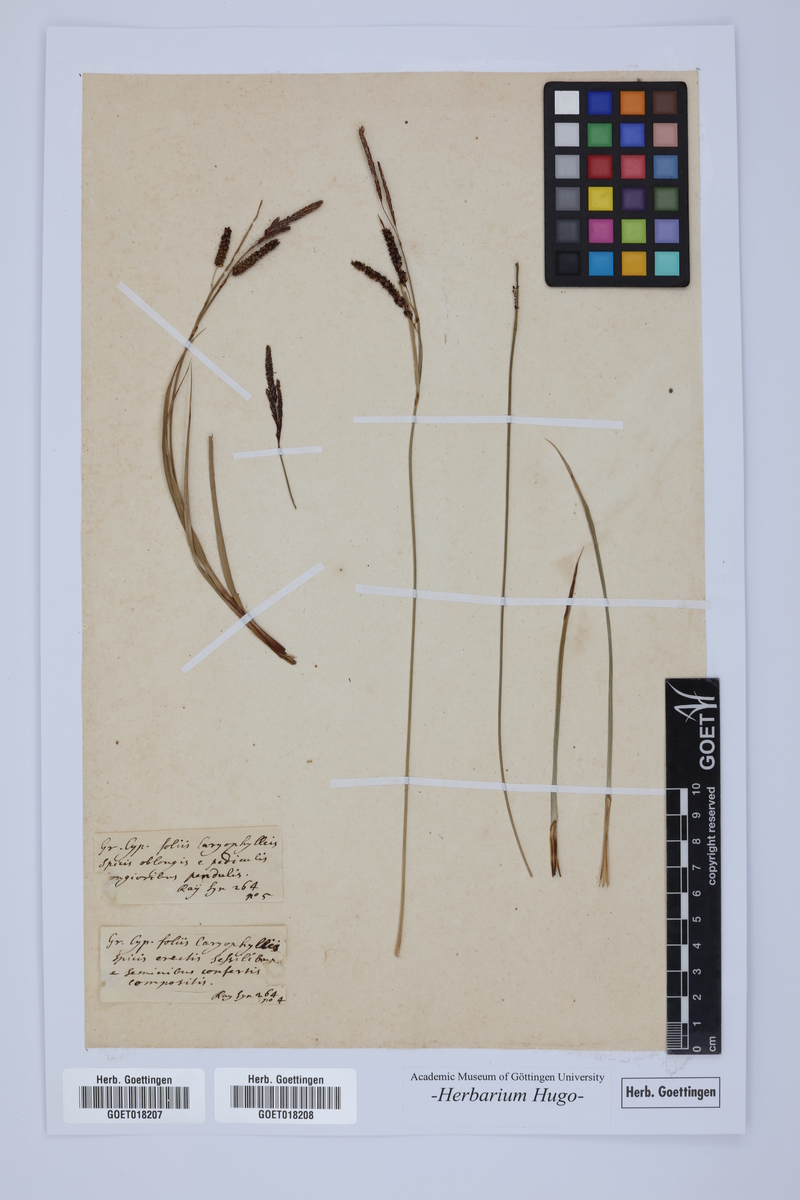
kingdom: Plantae
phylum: Tracheophyta
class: Liliopsida
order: Poales
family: Poaceae
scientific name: Poaceae
